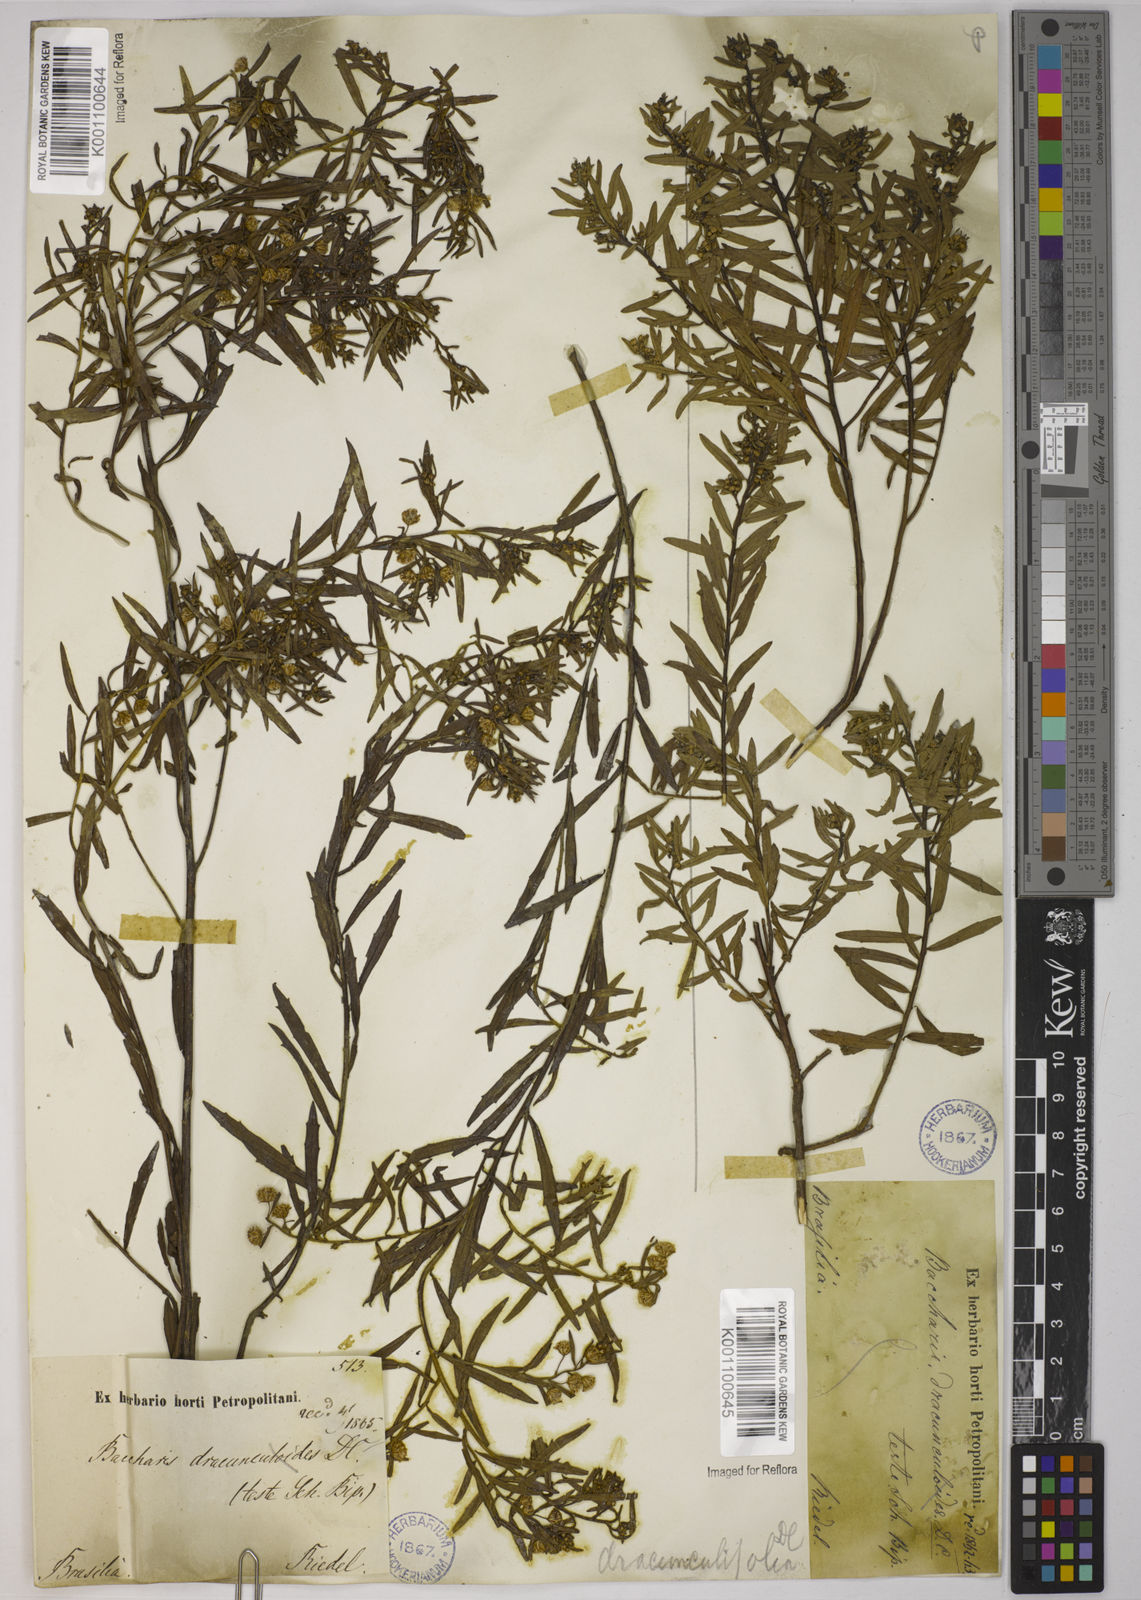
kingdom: Plantae
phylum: Tracheophyta
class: Magnoliopsida
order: Asterales
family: Asteraceae
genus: Baccharis
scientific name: Baccharis dracunculifolia
